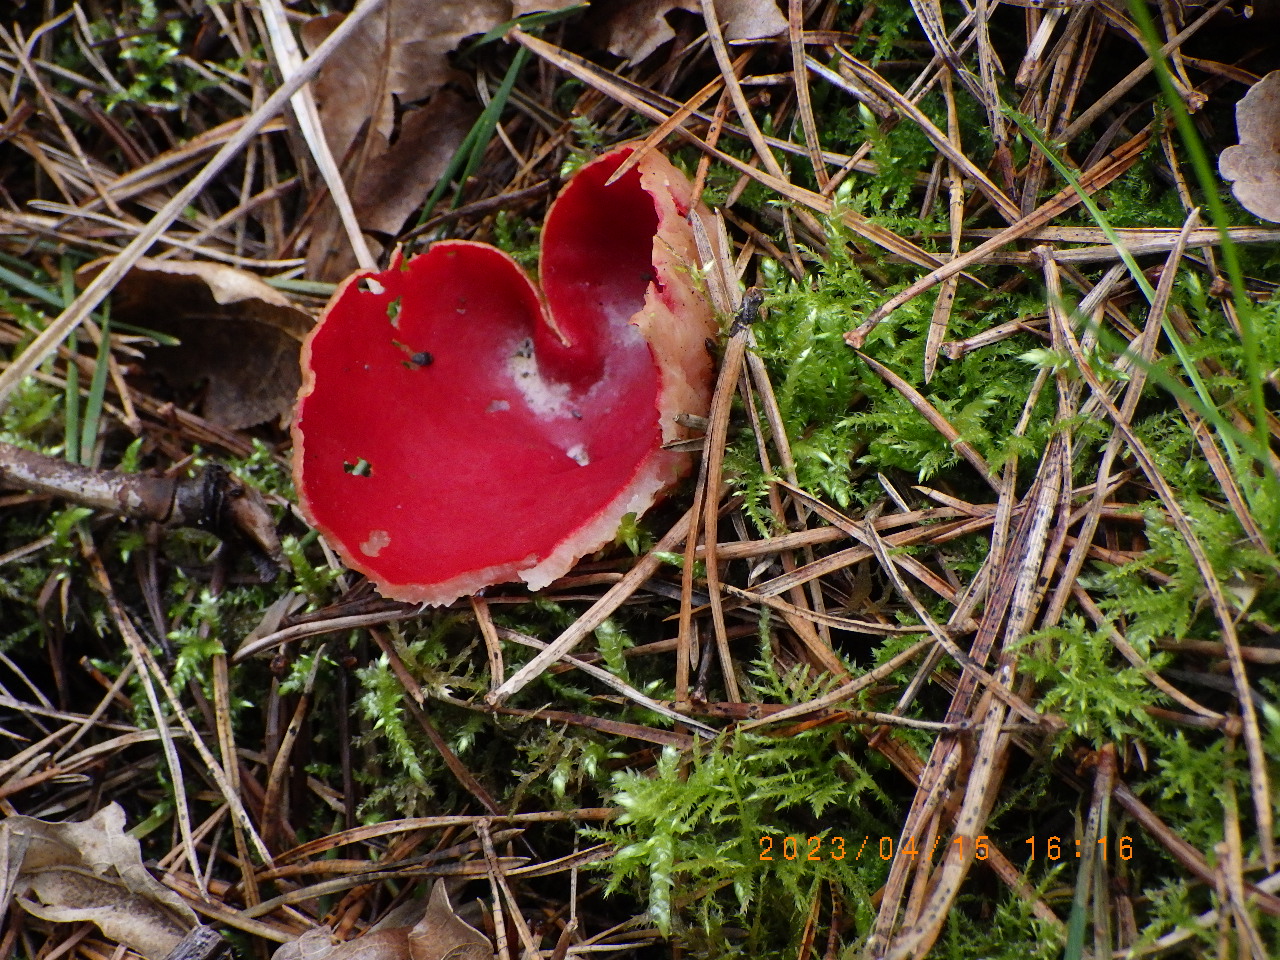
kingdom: Fungi
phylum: Ascomycota
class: Pezizomycetes
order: Pezizales
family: Sarcoscyphaceae
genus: Sarcoscypha
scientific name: Sarcoscypha austriaca
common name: krølhåret pragtbæger
